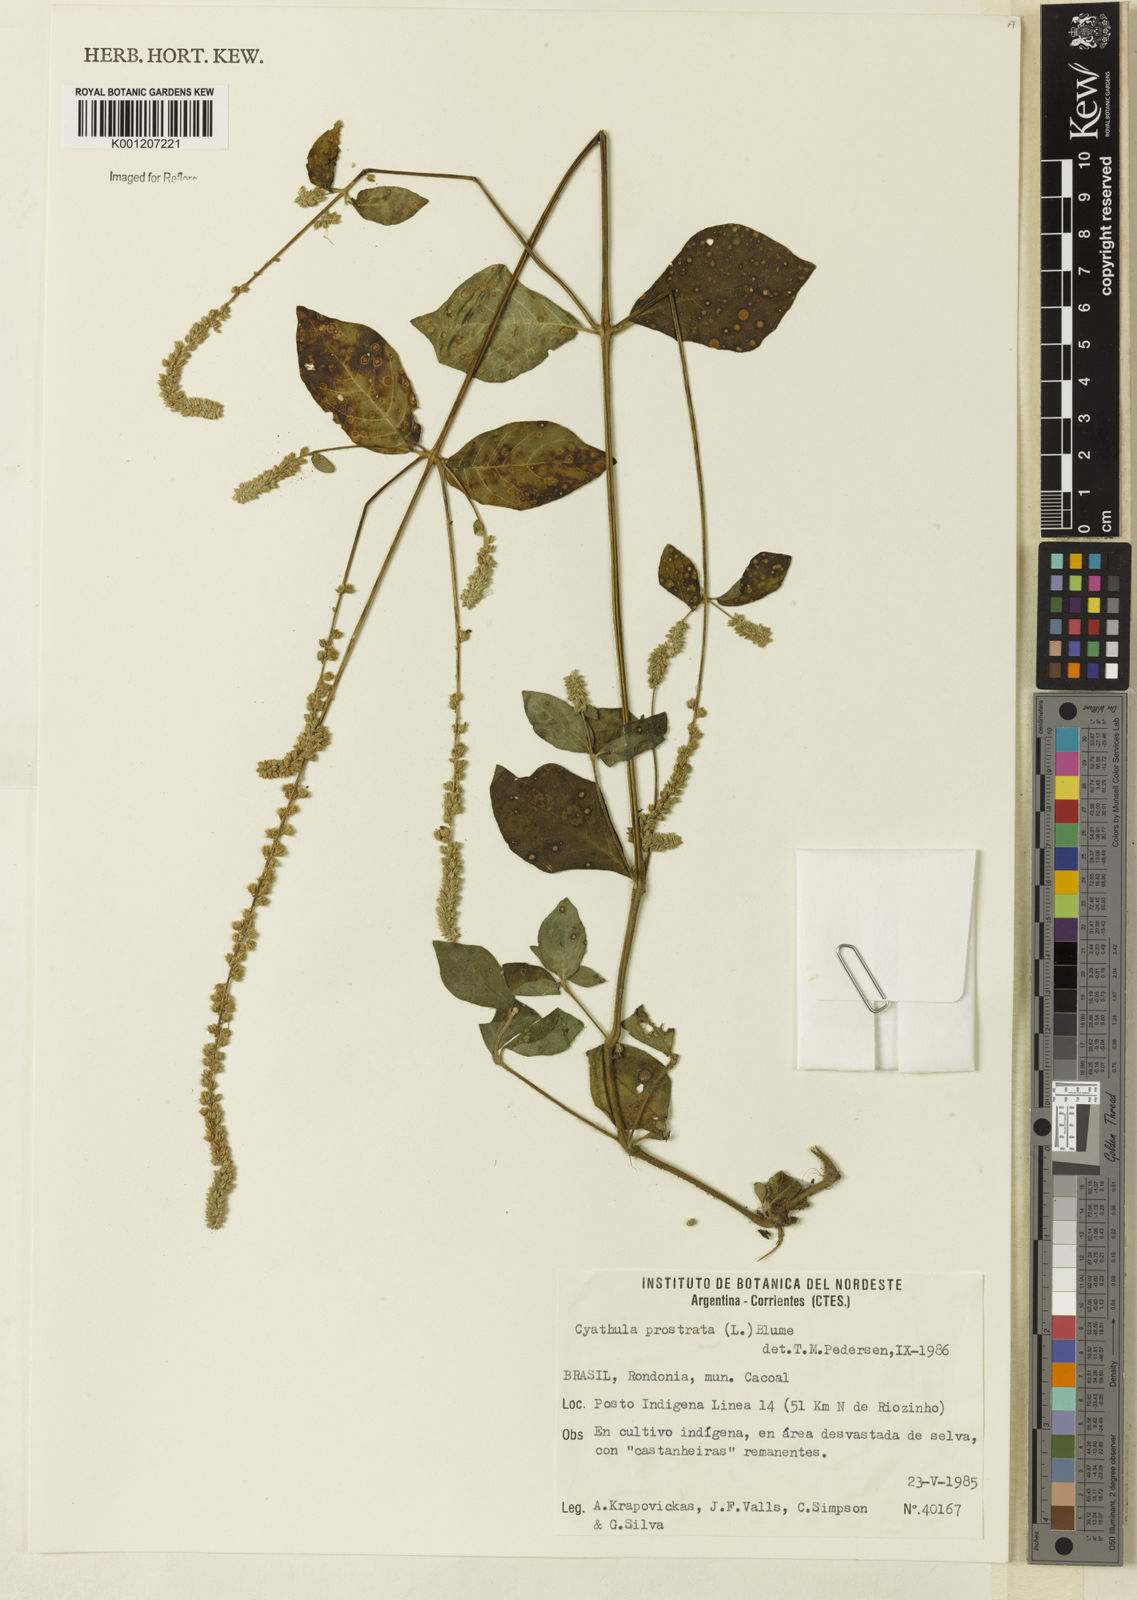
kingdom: Plantae
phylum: Tracheophyta
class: Magnoliopsida
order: Caryophyllales
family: Amaranthaceae
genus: Cyathula
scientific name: Cyathula prostrata
